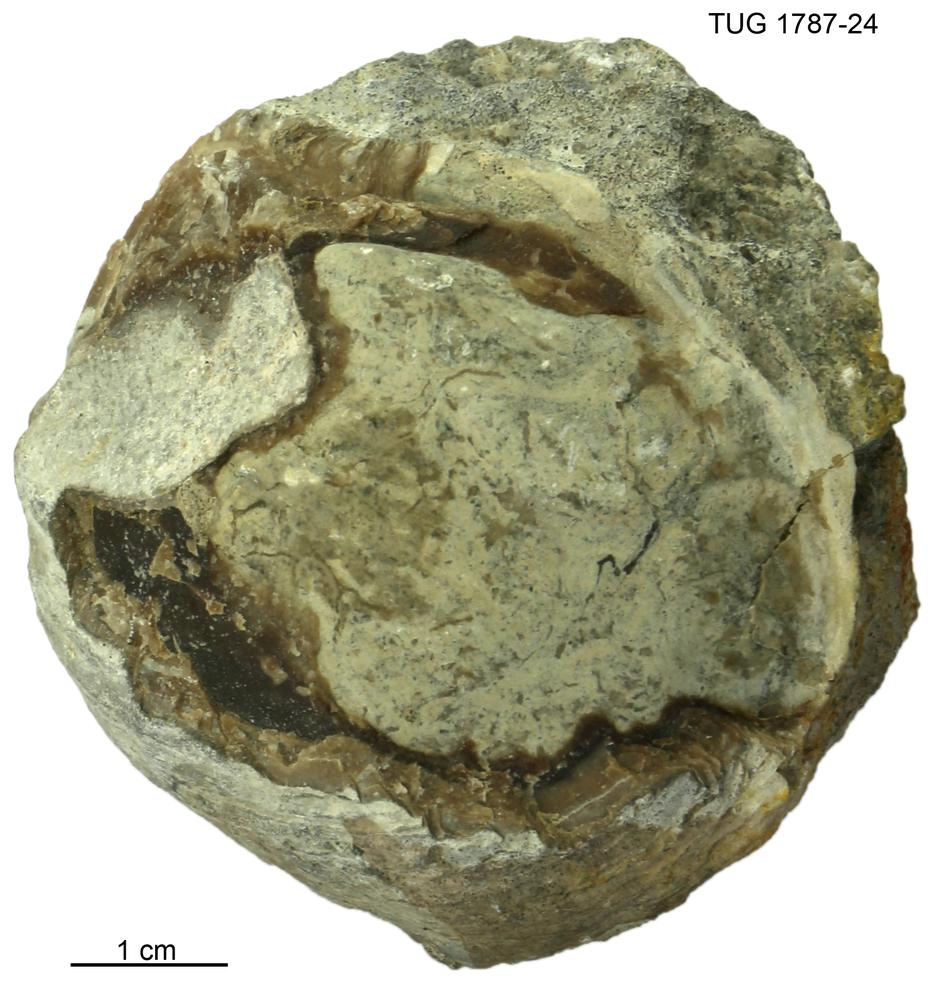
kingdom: Animalia
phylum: Mollusca
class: Monoplacophora
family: Metoptomatidae
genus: Metoptoma
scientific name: Metoptoma
